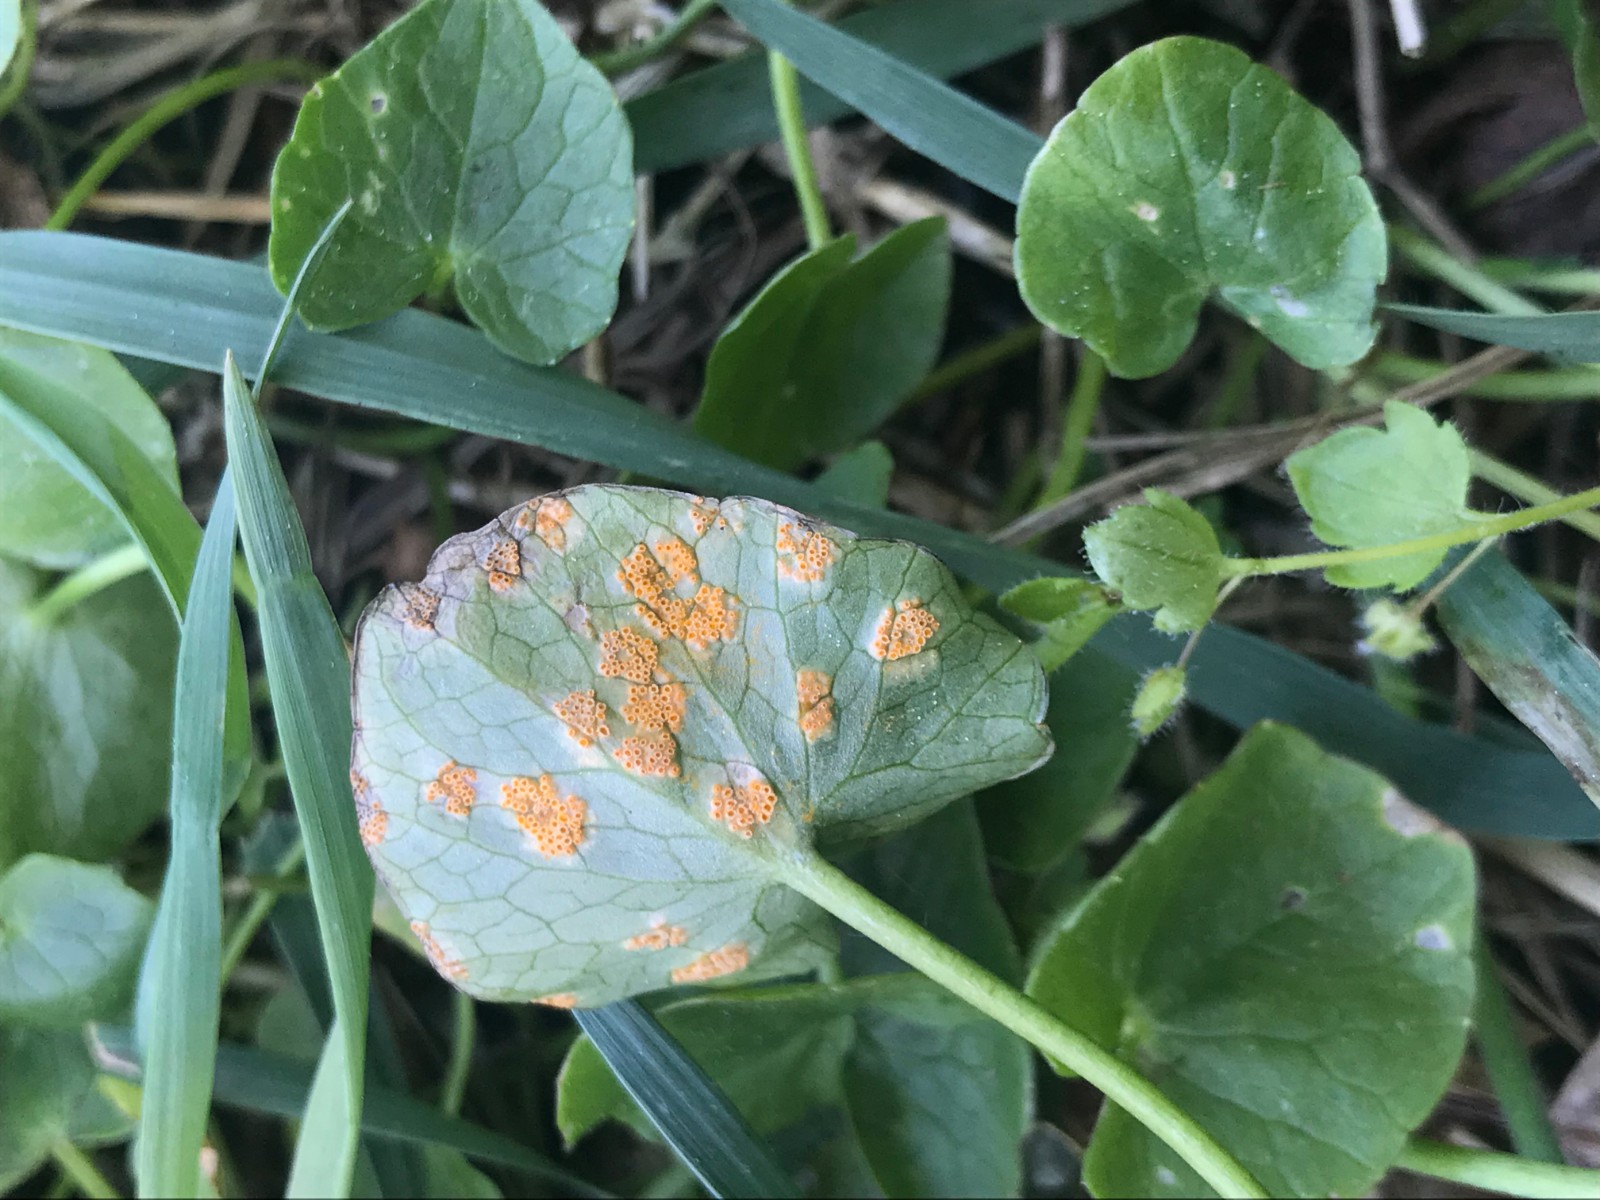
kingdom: Fungi
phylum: Basidiomycota
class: Pucciniomycetes
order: Pucciniales
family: Pucciniaceae
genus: Uromyces
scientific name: Uromyces dactylidis
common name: ranunkel-encellerust
